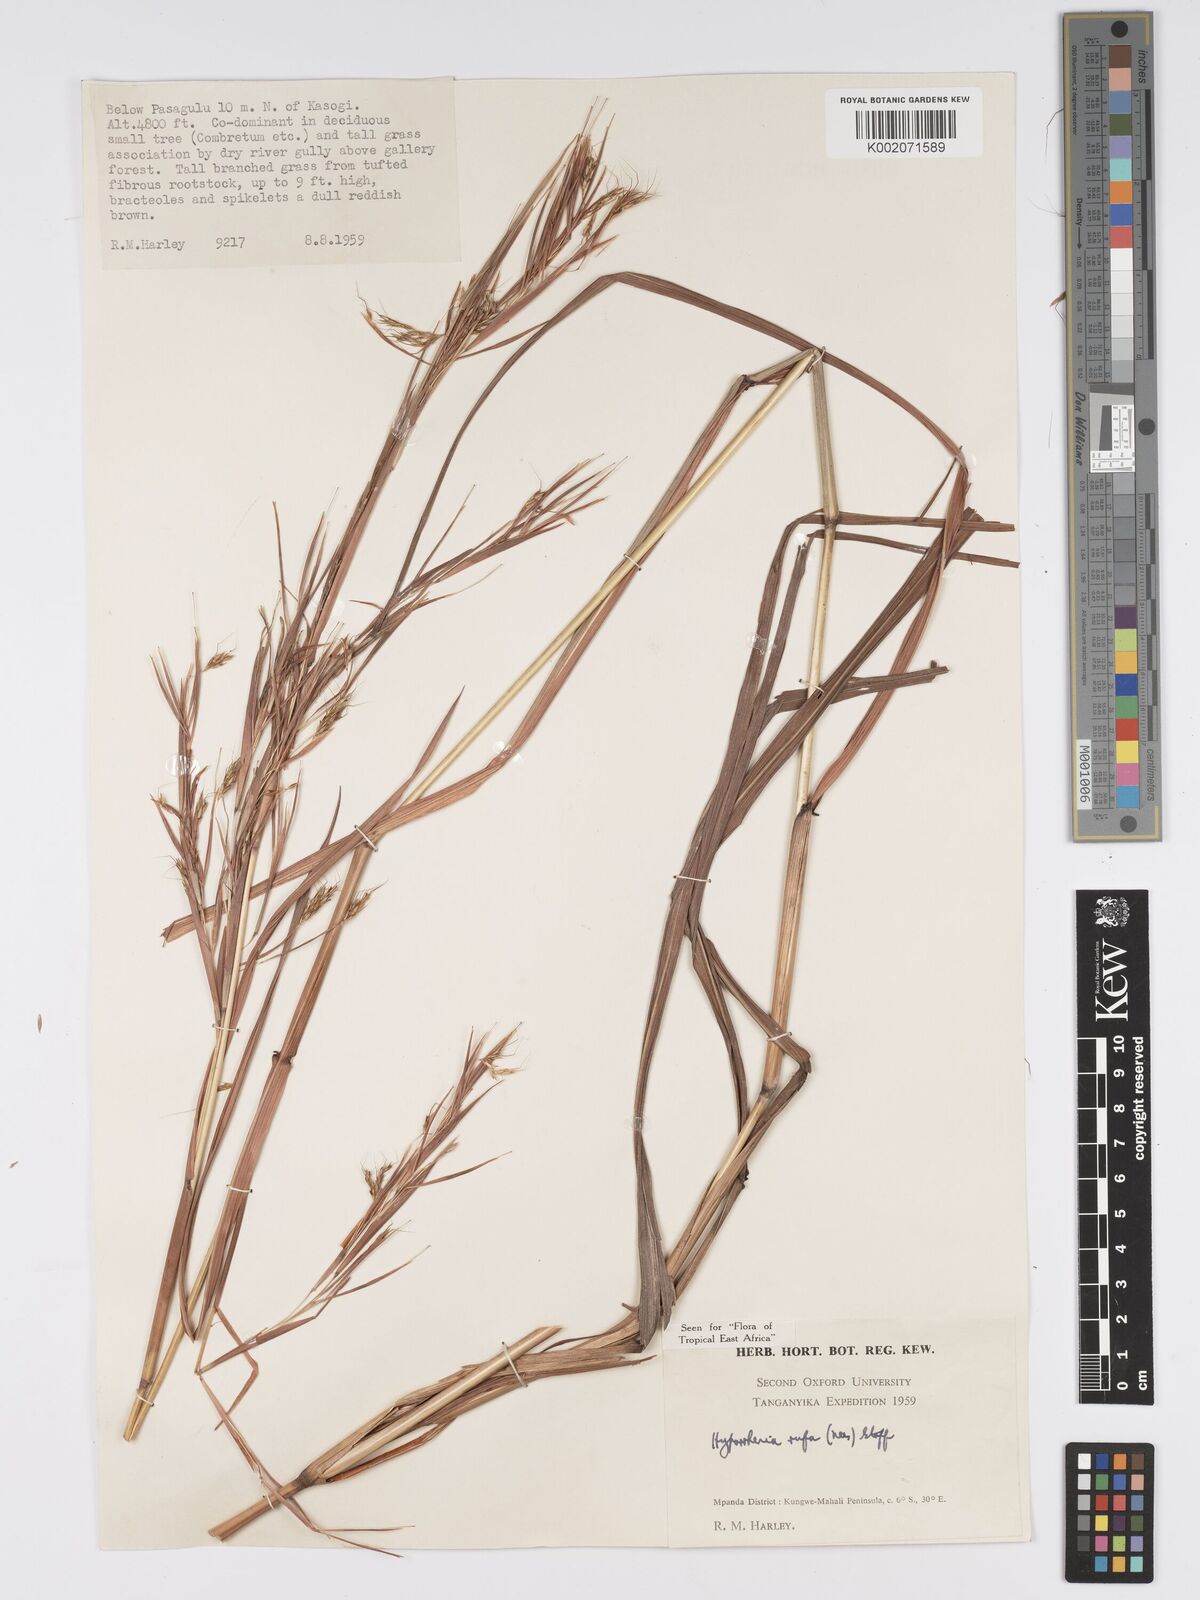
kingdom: Plantae
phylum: Tracheophyta
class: Liliopsida
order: Poales
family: Poaceae
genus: Hyparrhenia
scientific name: Hyparrhenia rufa
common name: Jaraguagrass
